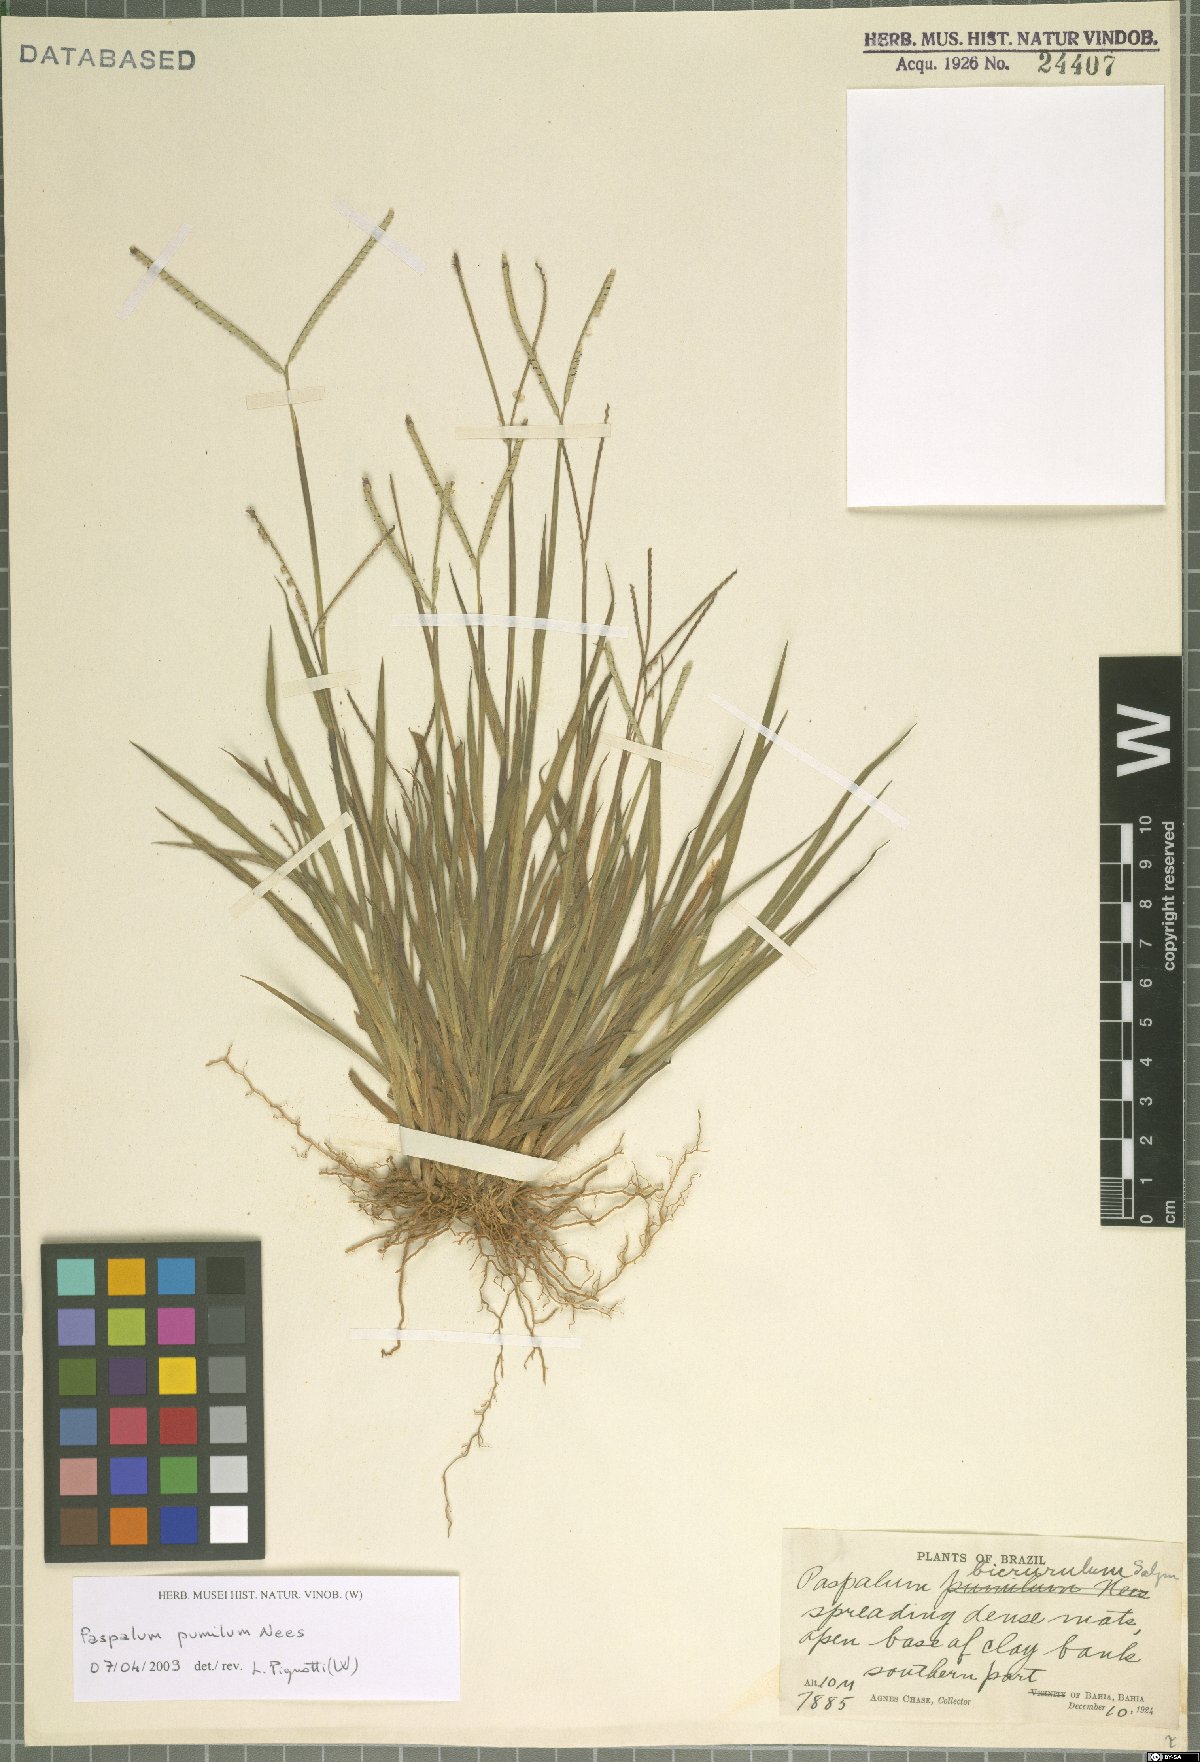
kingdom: Plantae
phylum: Tracheophyta
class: Liliopsida
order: Poales
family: Poaceae
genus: Paspalum
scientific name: Paspalum pumilum
